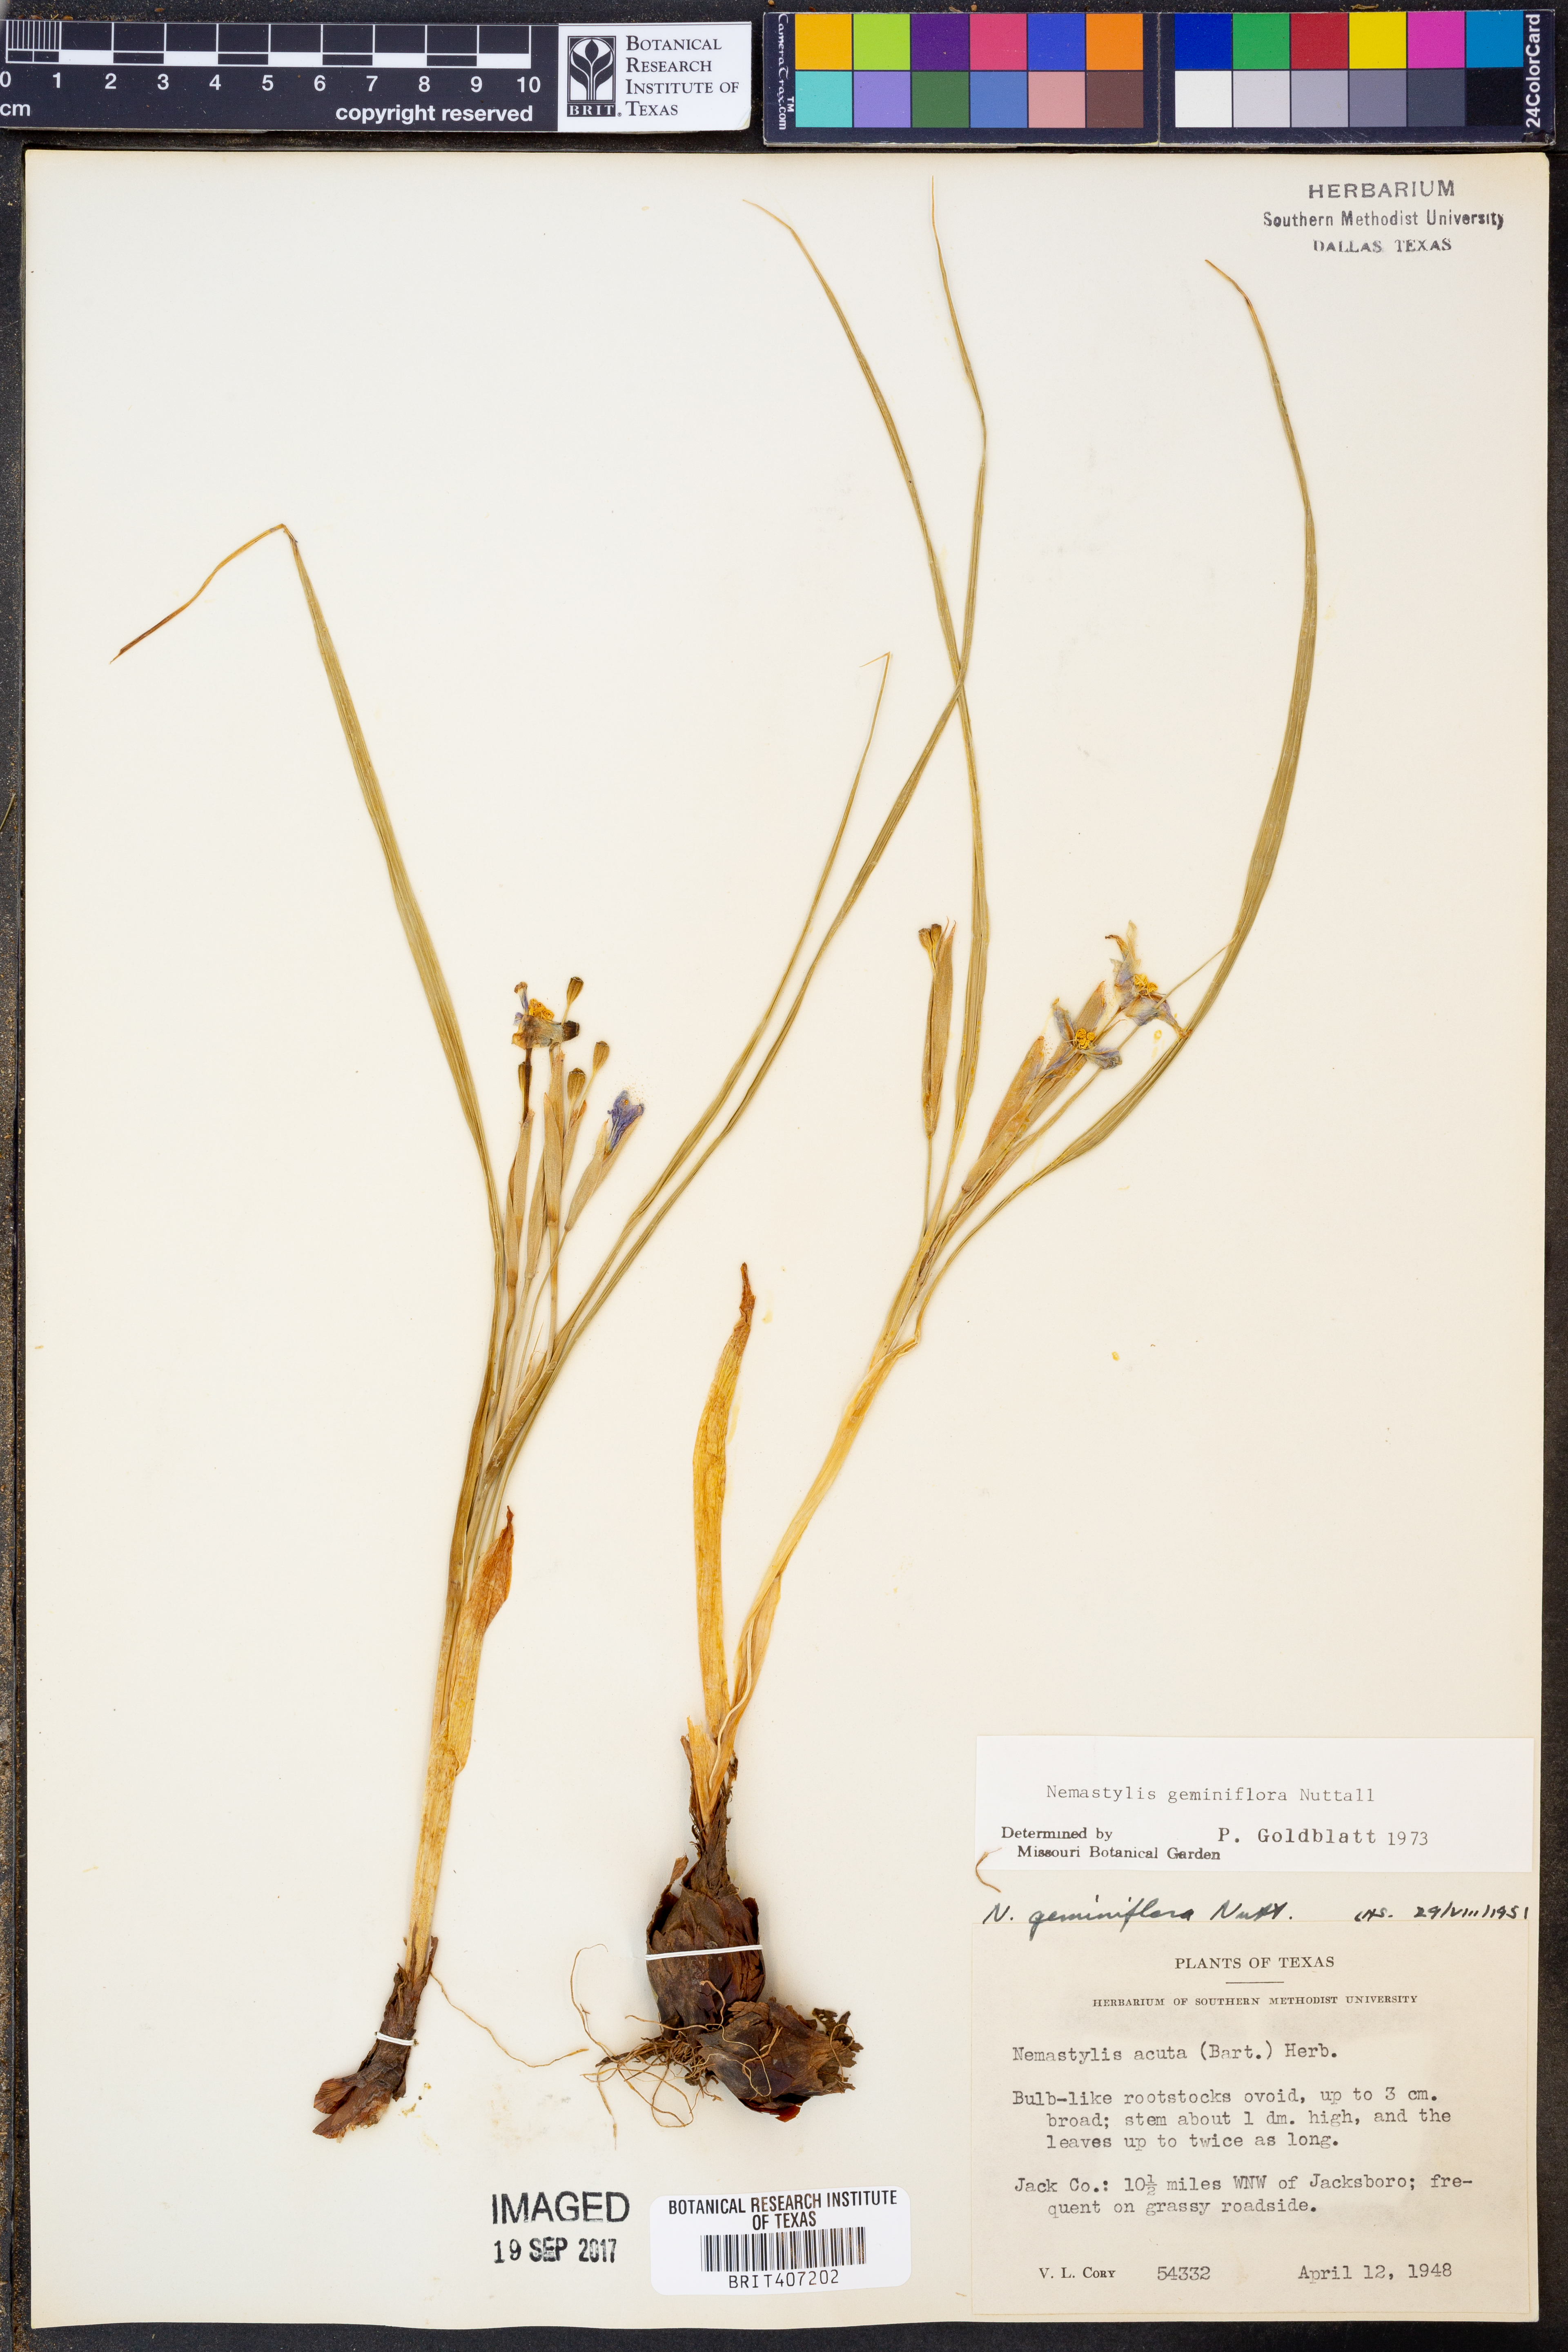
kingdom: Plantae
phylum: Tracheophyta
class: Liliopsida
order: Asparagales
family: Iridaceae
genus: Nemastylis
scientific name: Nemastylis geminiflora
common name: Prairie celestial
